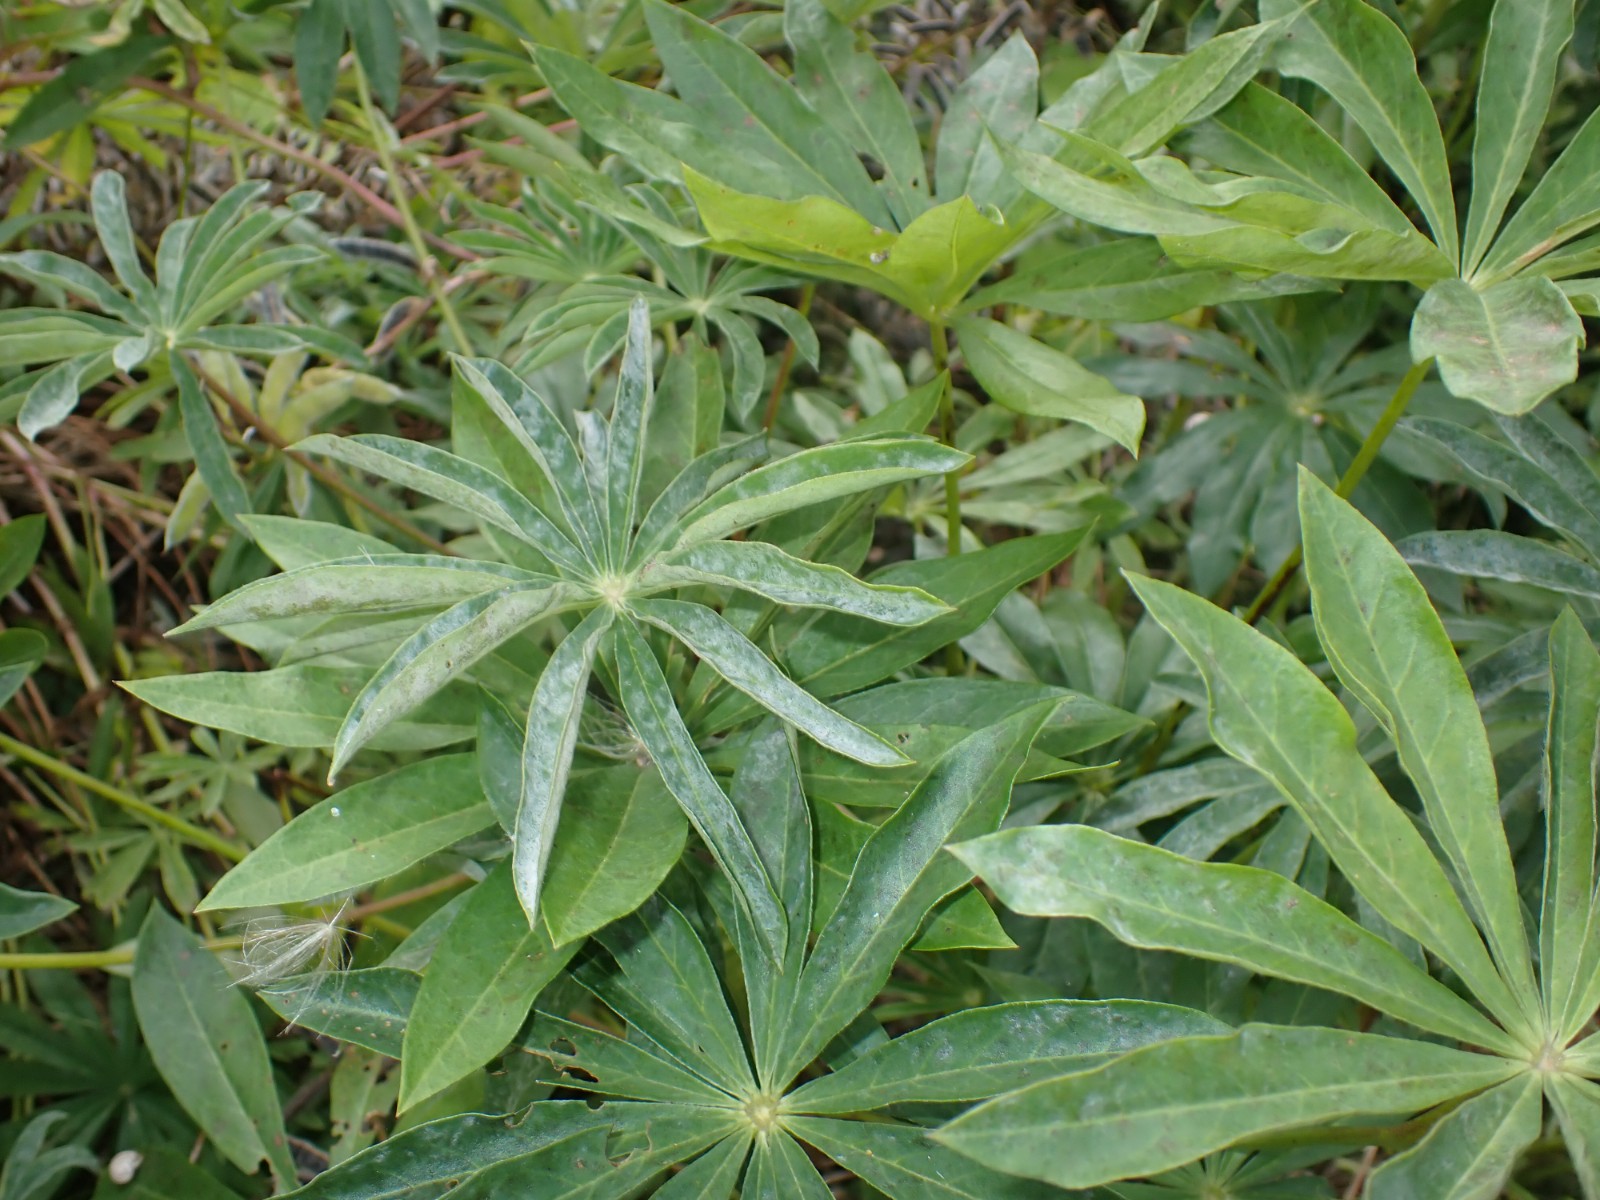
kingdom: Fungi
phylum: Ascomycota
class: Leotiomycetes
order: Helotiales
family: Erysiphaceae
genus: Erysiphe
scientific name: Erysiphe intermedia
